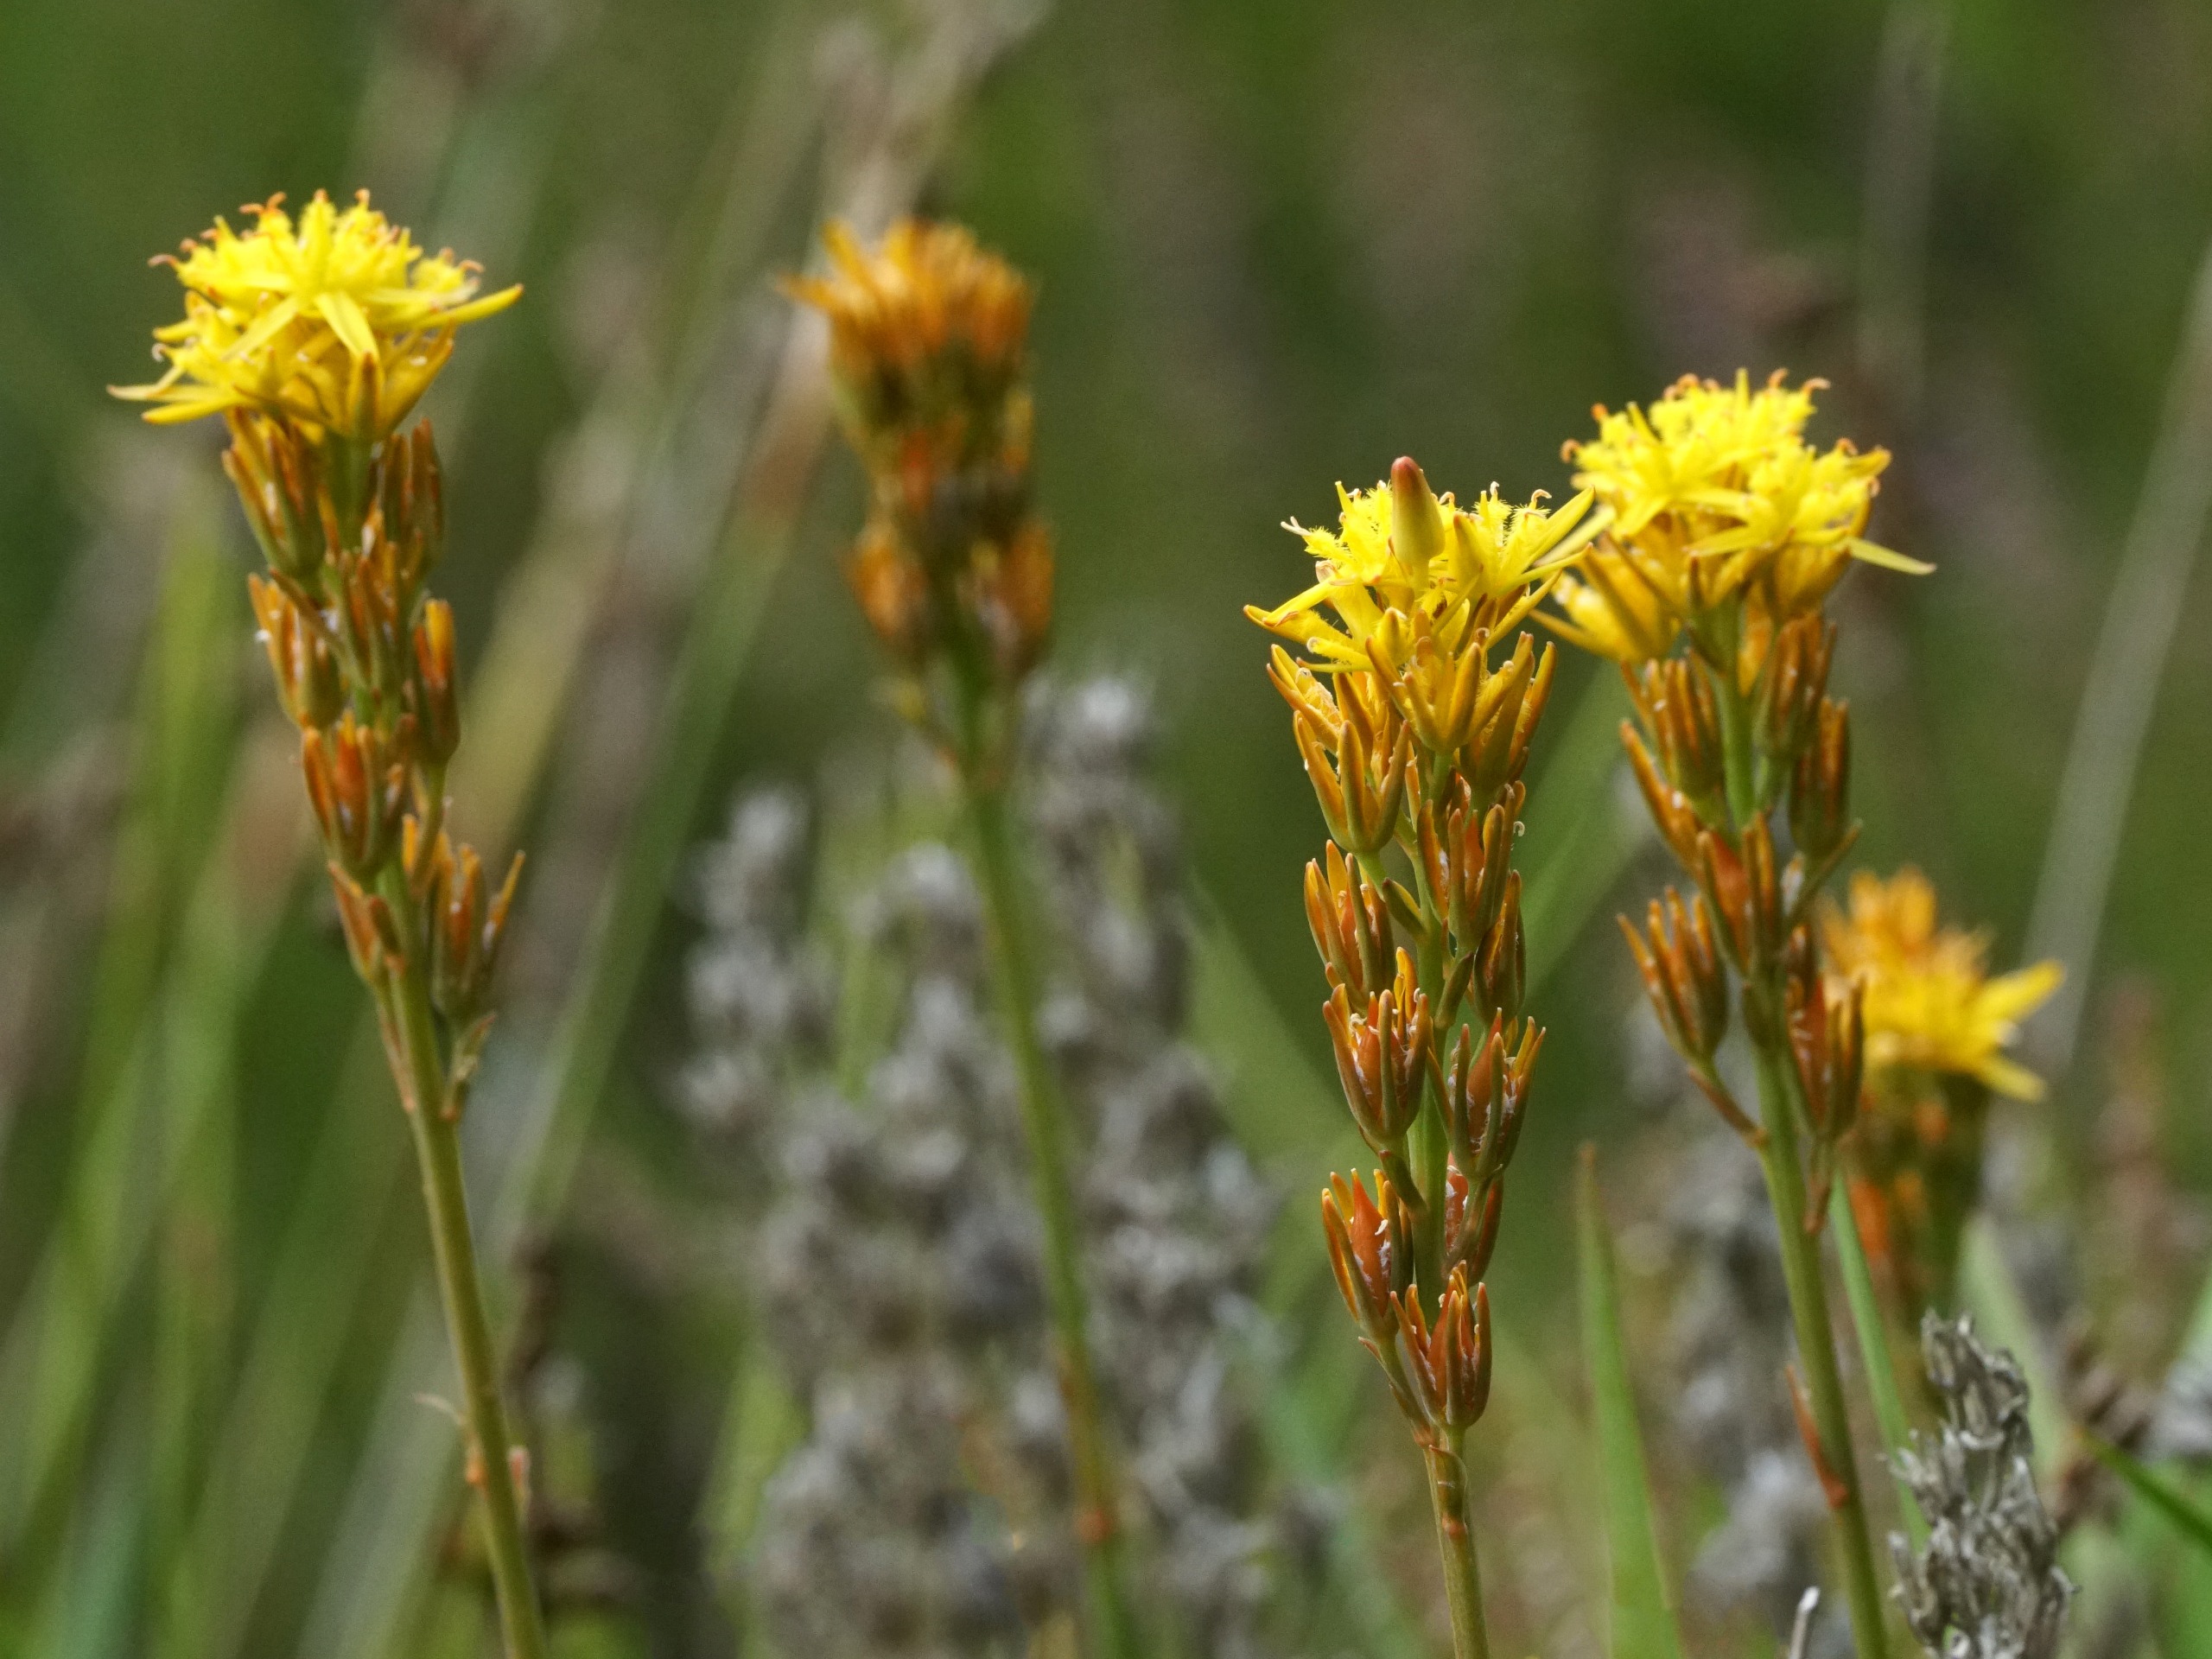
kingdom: Plantae
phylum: Tracheophyta
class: Liliopsida
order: Dioscoreales
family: Nartheciaceae
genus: Narthecium
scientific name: Narthecium ossifragum
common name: Benbræk
